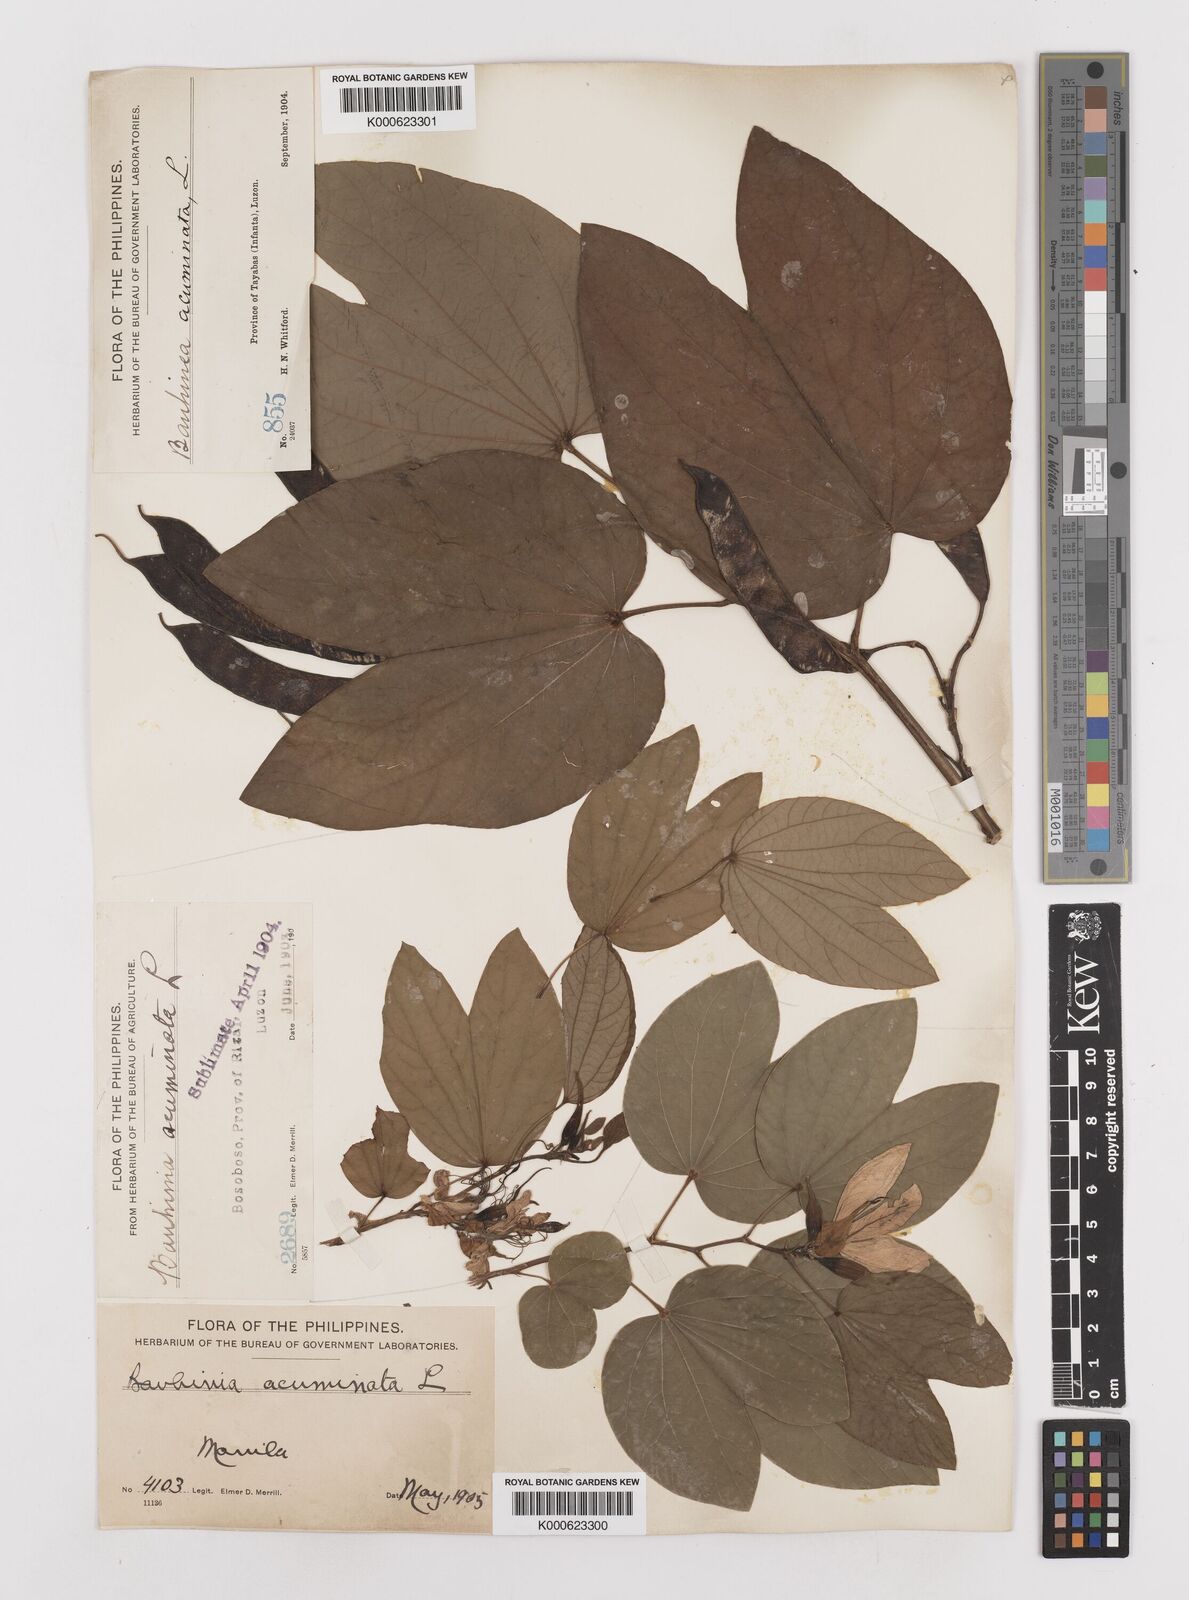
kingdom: Plantae
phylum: Tracheophyta
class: Magnoliopsida
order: Fabales
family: Fabaceae
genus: Bauhinia
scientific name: Bauhinia acuminata
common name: Dwarf white bauhinia
